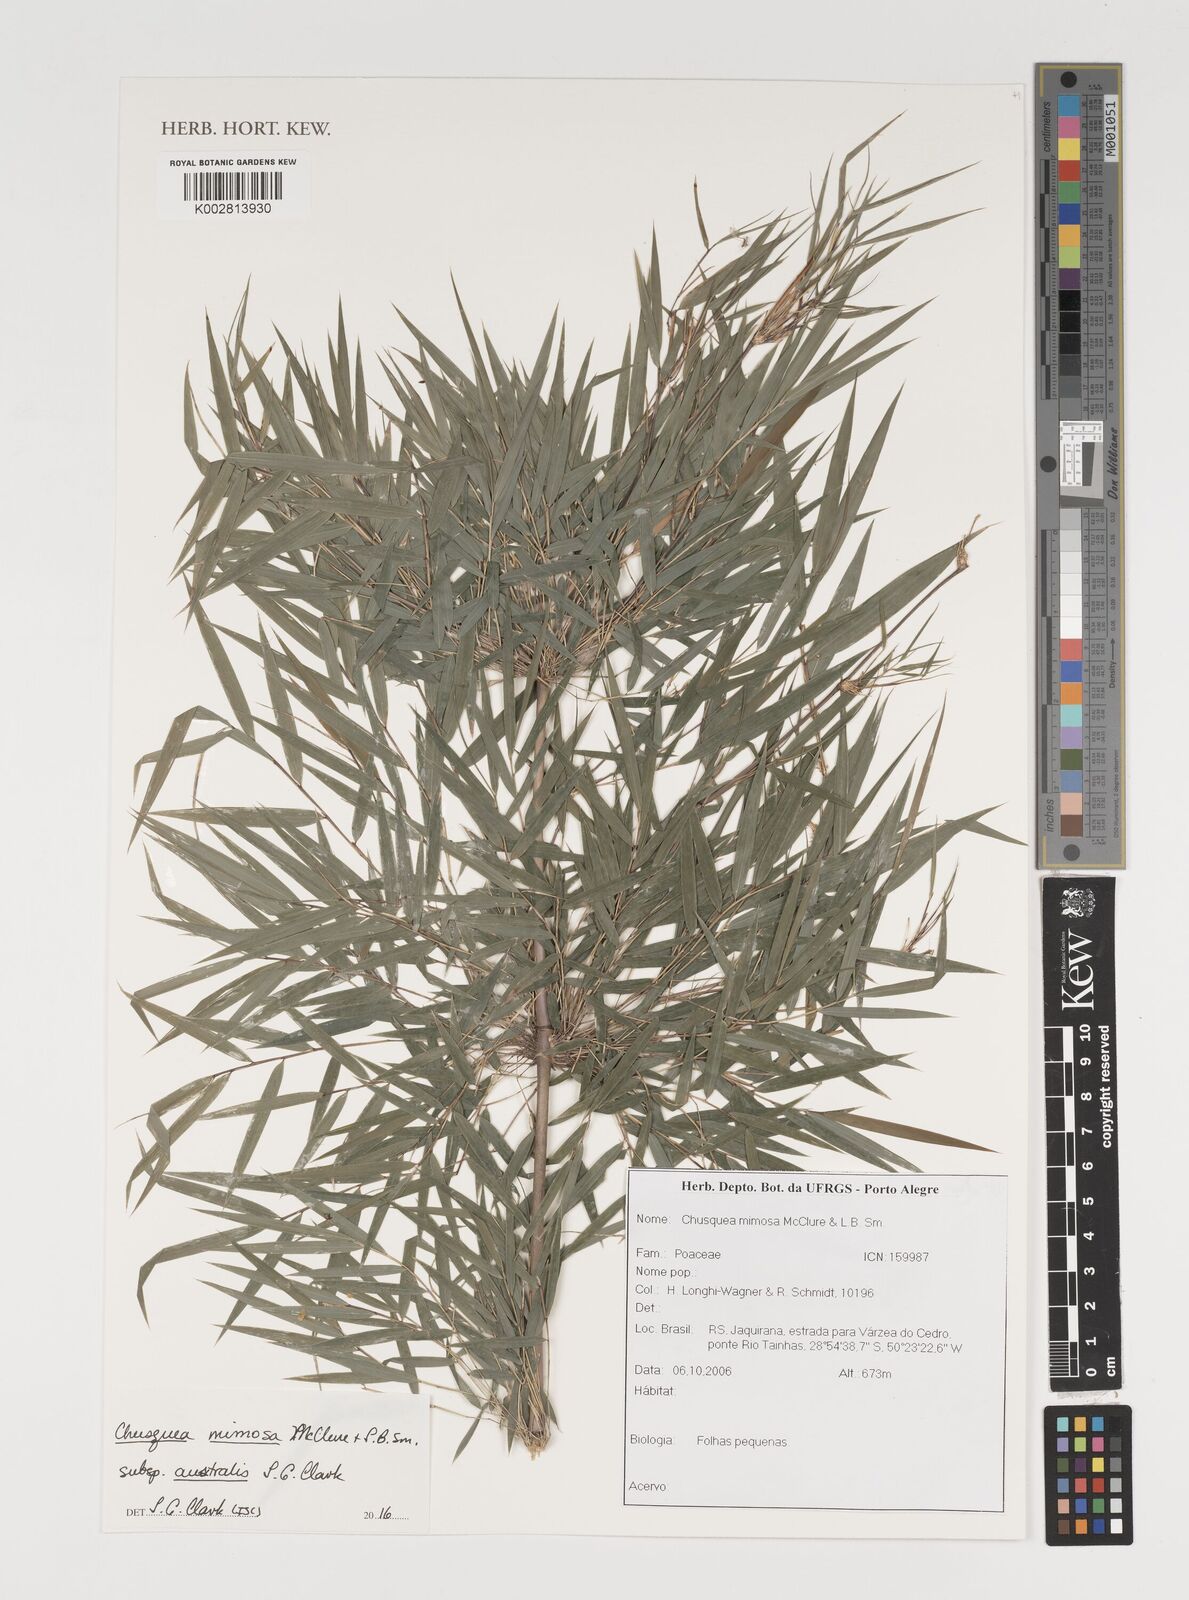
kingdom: Plantae
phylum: Tracheophyta
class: Liliopsida
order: Poales
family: Poaceae
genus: Chusquea
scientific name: Chusquea mimosa
